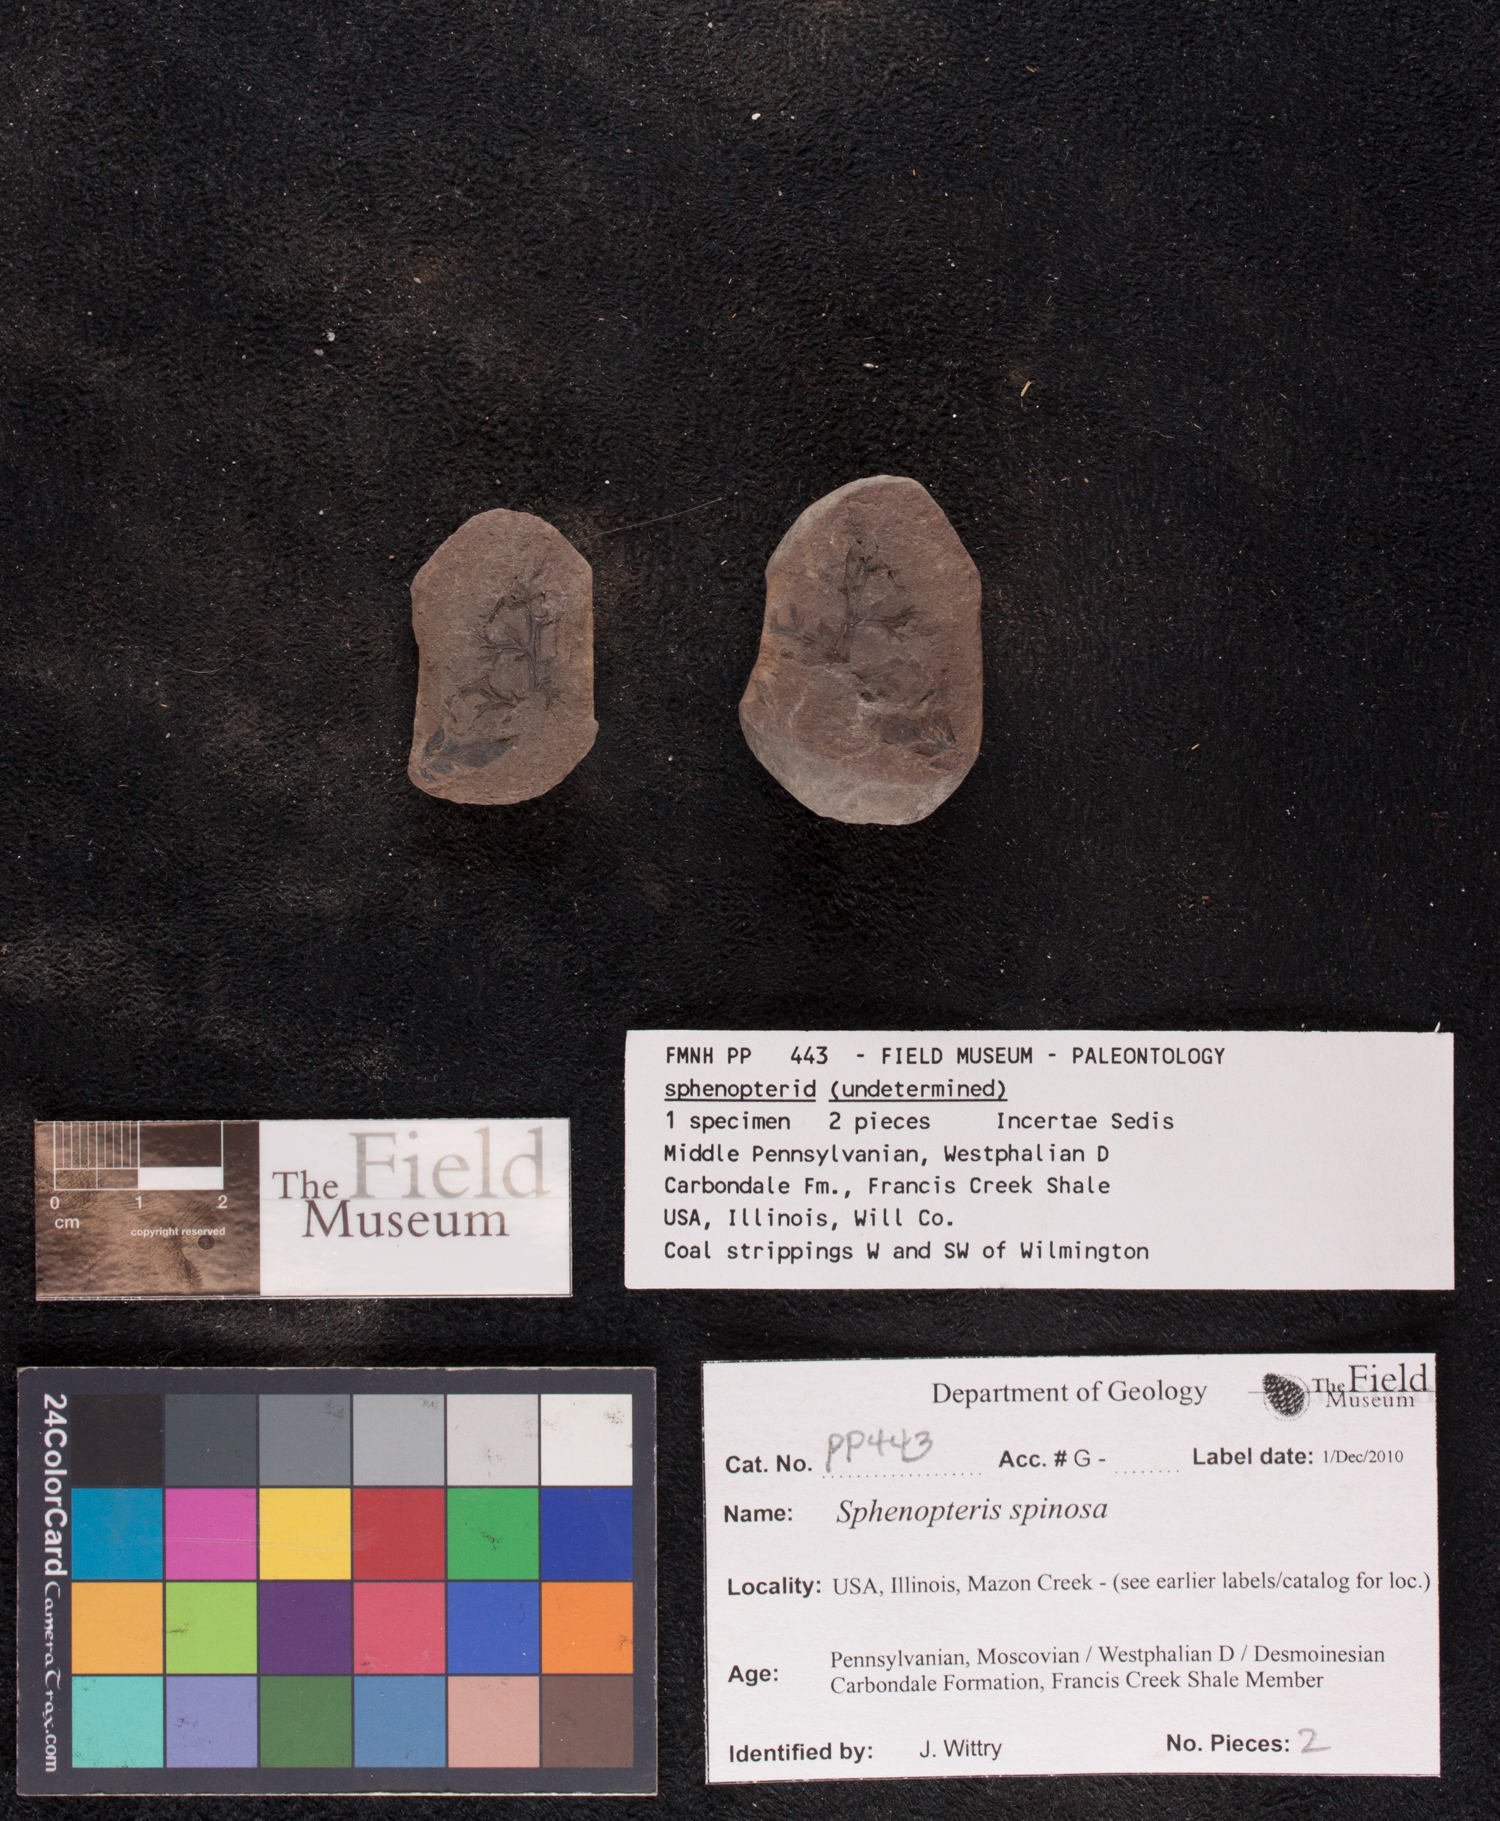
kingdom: Plantae
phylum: Tracheophyta
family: Lyginopteridaceae
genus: Sphenopteris
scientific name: Sphenopteris
